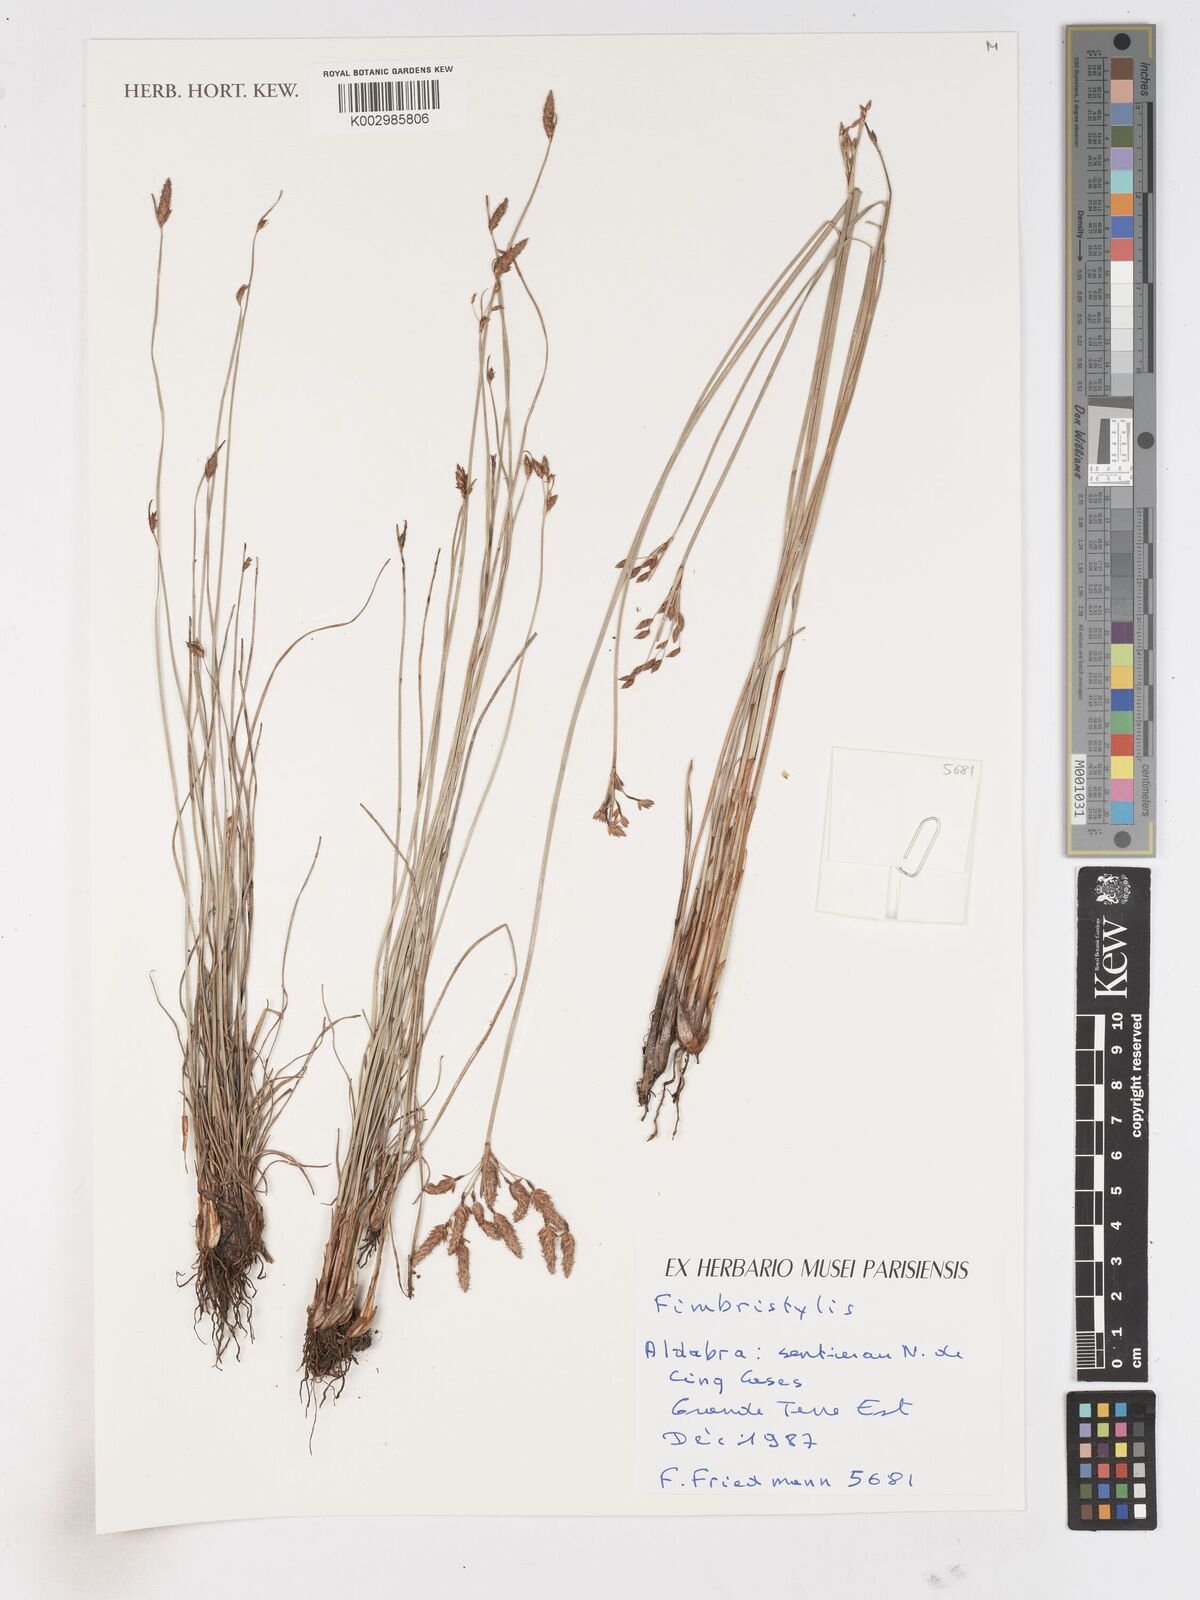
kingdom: Plantae
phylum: Tracheophyta
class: Liliopsida
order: Poales
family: Cyperaceae
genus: Fimbristylis
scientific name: Fimbristylis
